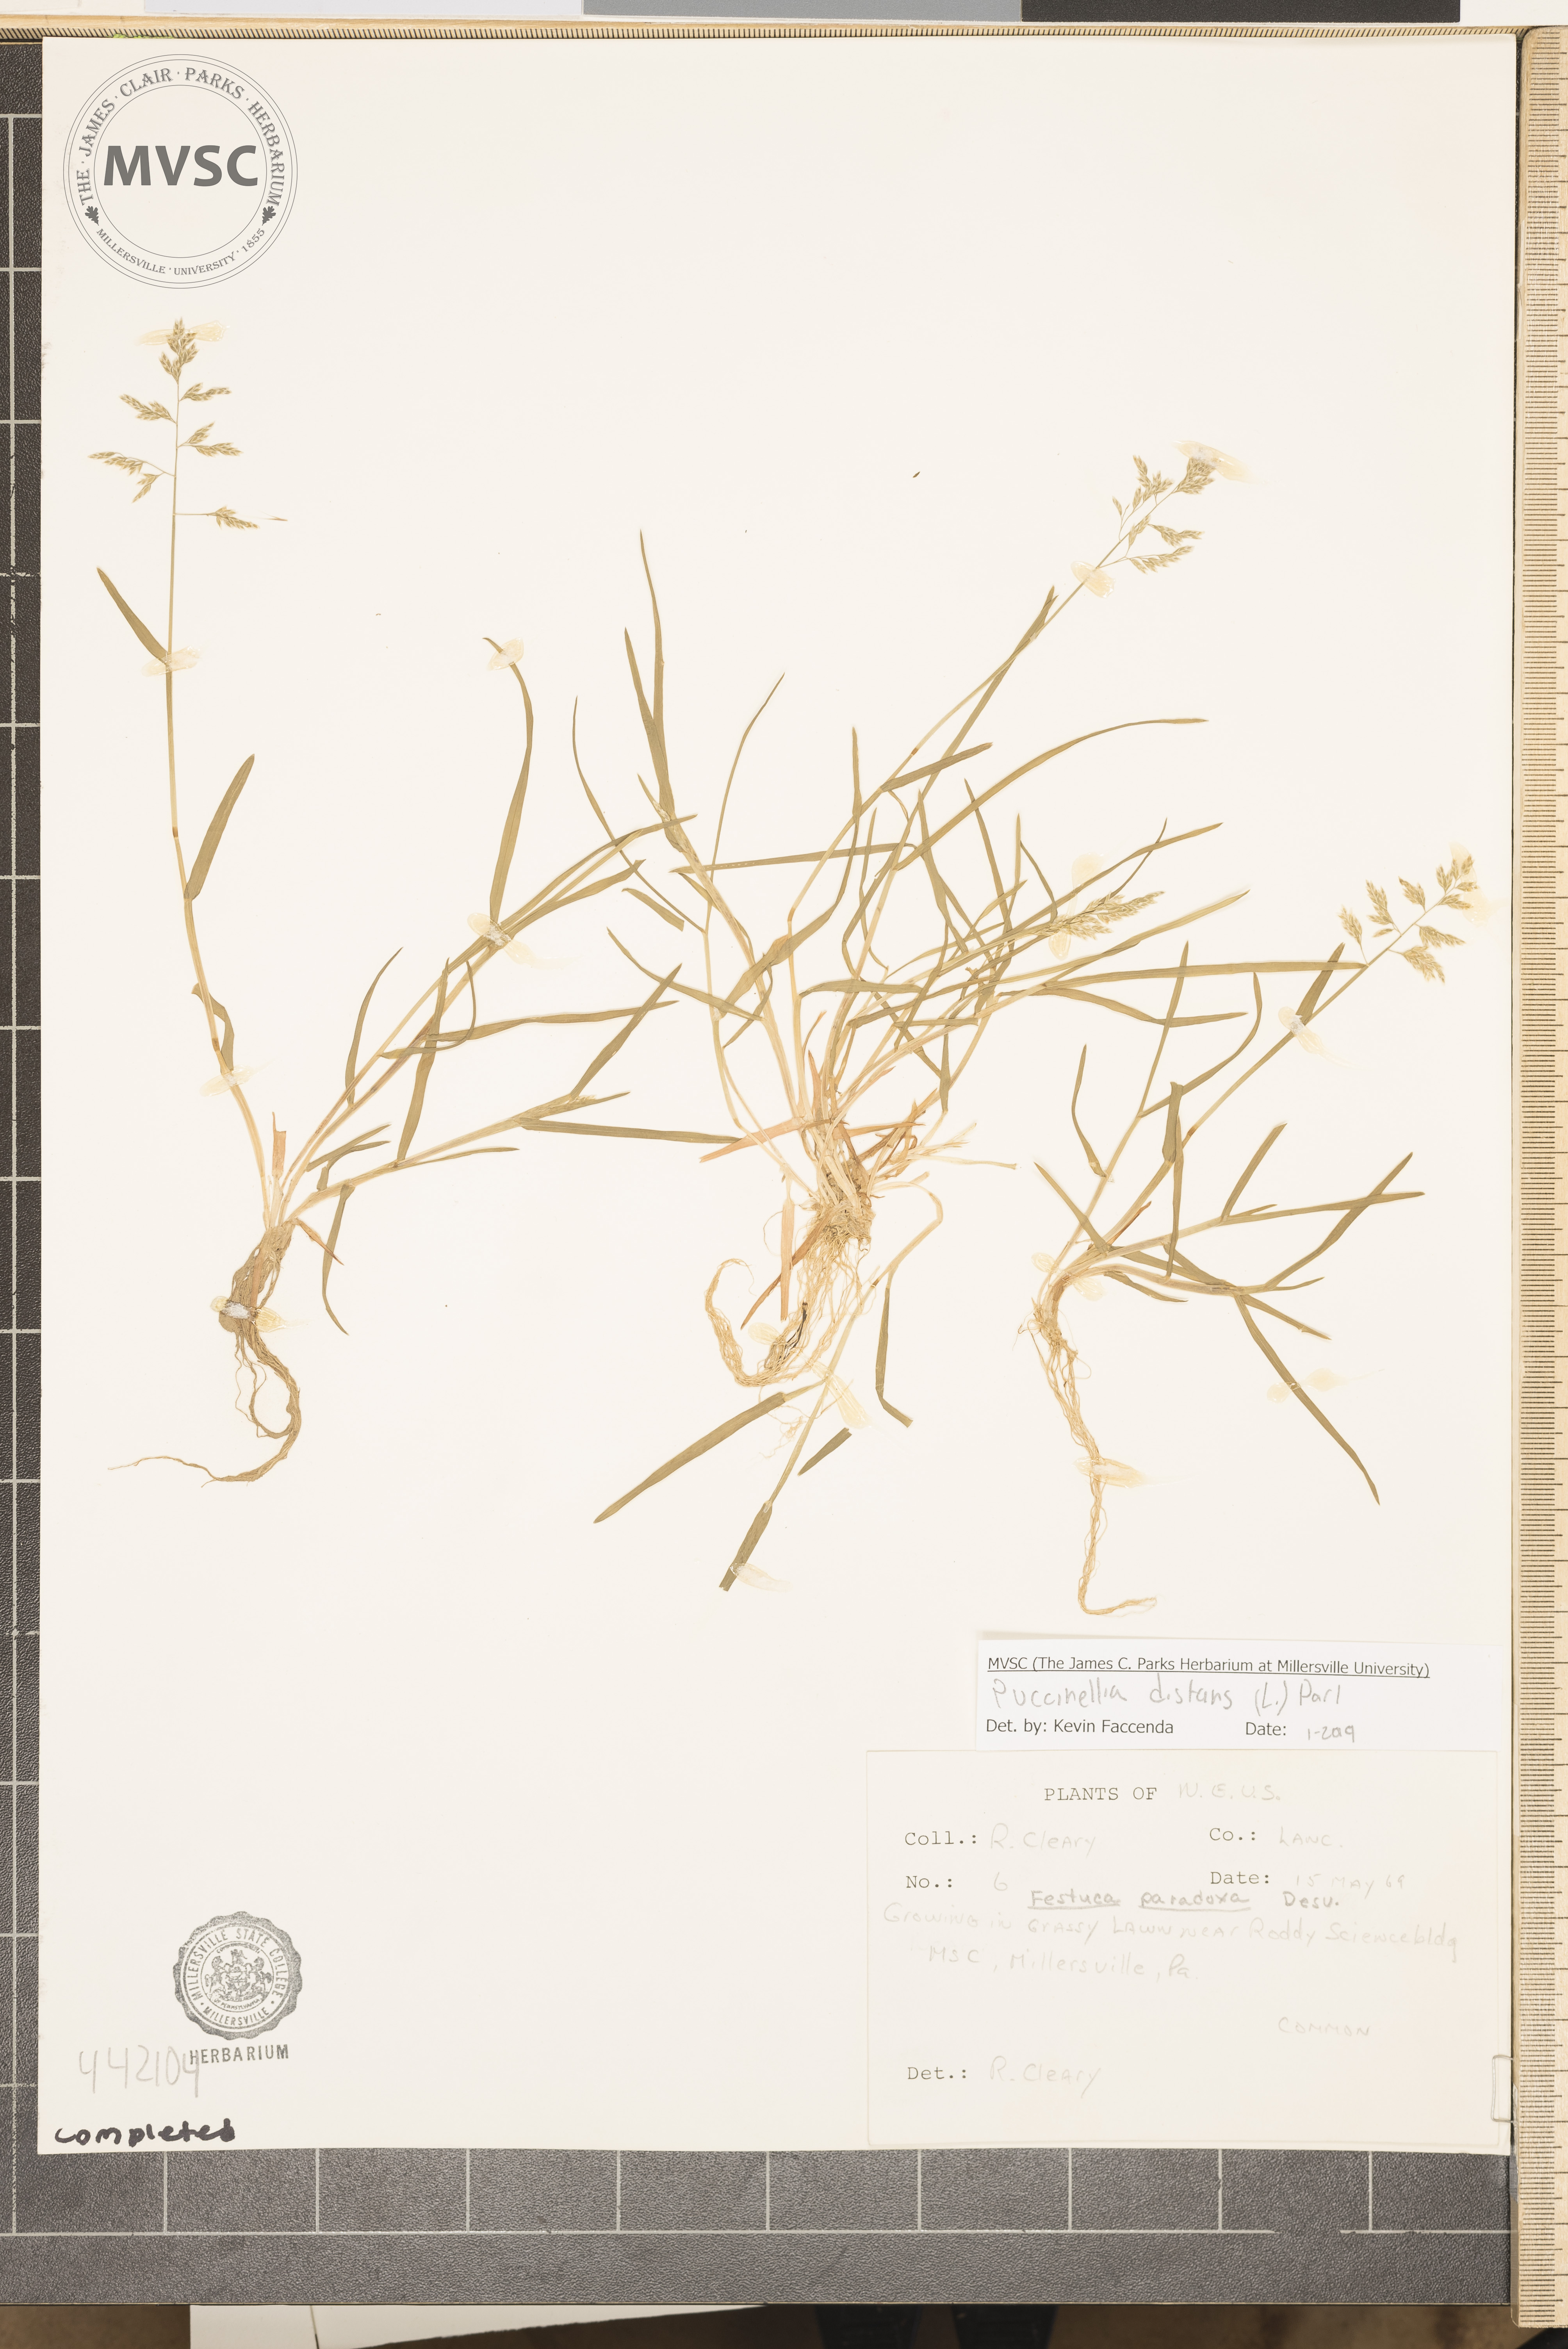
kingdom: Plantae
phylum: Tracheophyta
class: Liliopsida
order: Poales
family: Poaceae
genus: Poa
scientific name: Poa annua
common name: Annual bluegrass
